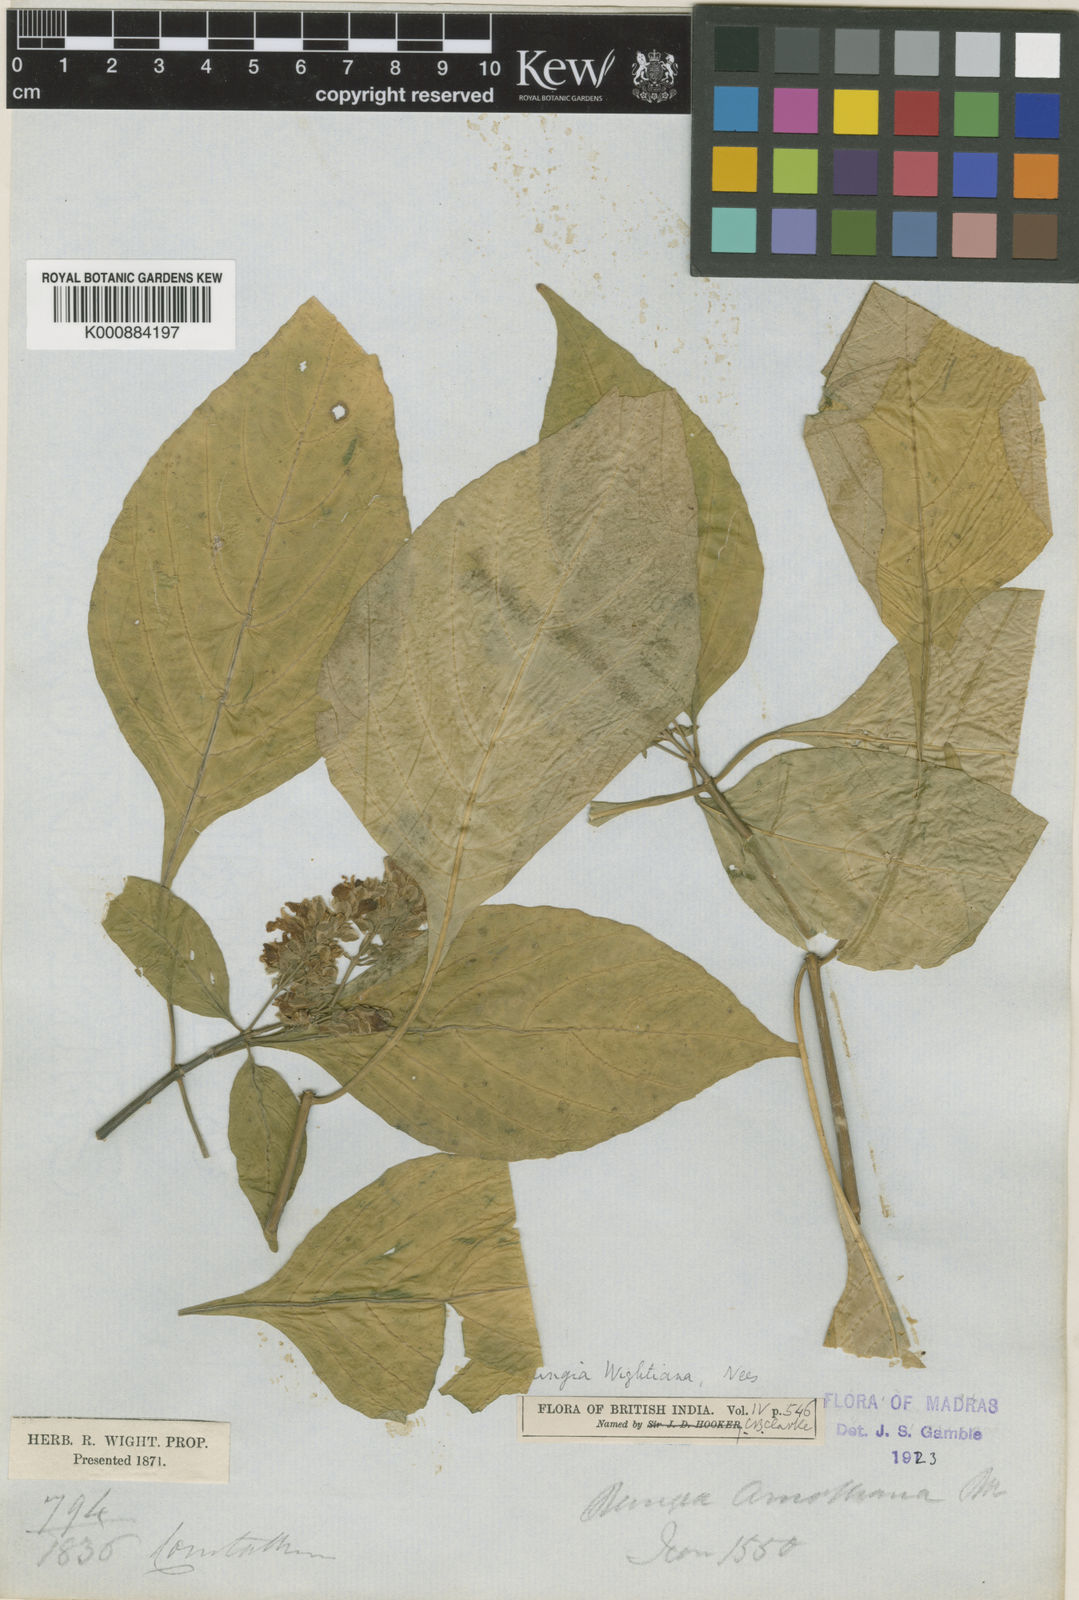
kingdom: Plantae
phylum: Tracheophyta
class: Magnoliopsida
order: Lamiales
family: Acanthaceae
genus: Rungia
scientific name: Rungia wightiana
